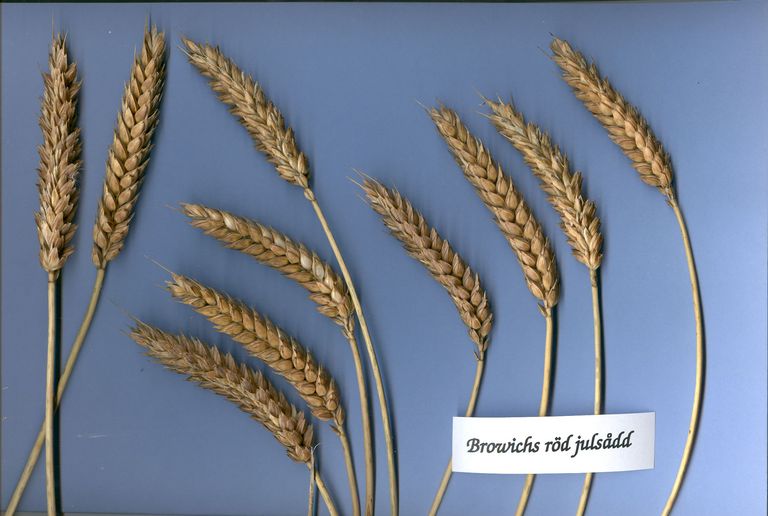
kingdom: Plantae
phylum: Tracheophyta
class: Liliopsida
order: Poales
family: Poaceae
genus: Triticum
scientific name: Triticum aestivum
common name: Common wheat
